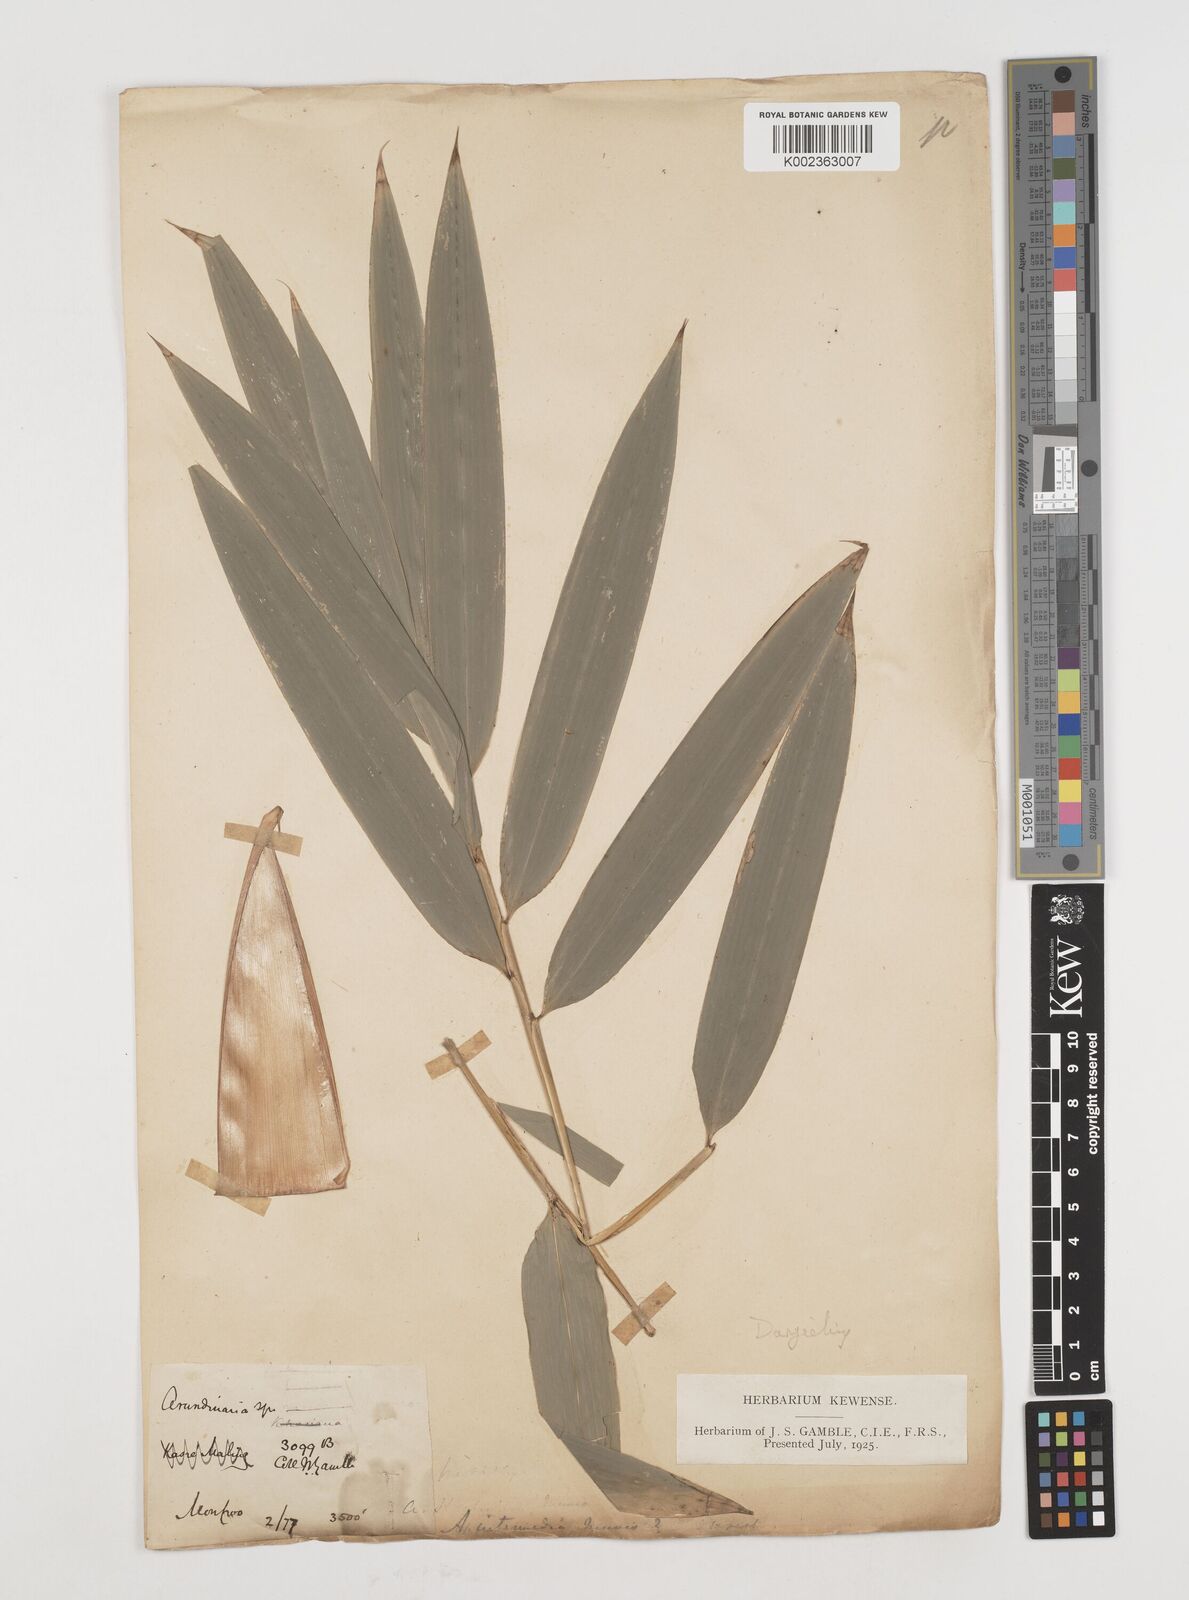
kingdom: Plantae
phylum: Tracheophyta
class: Liliopsida
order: Poales
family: Poaceae
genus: Drepanostachyum
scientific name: Drepanostachyum
